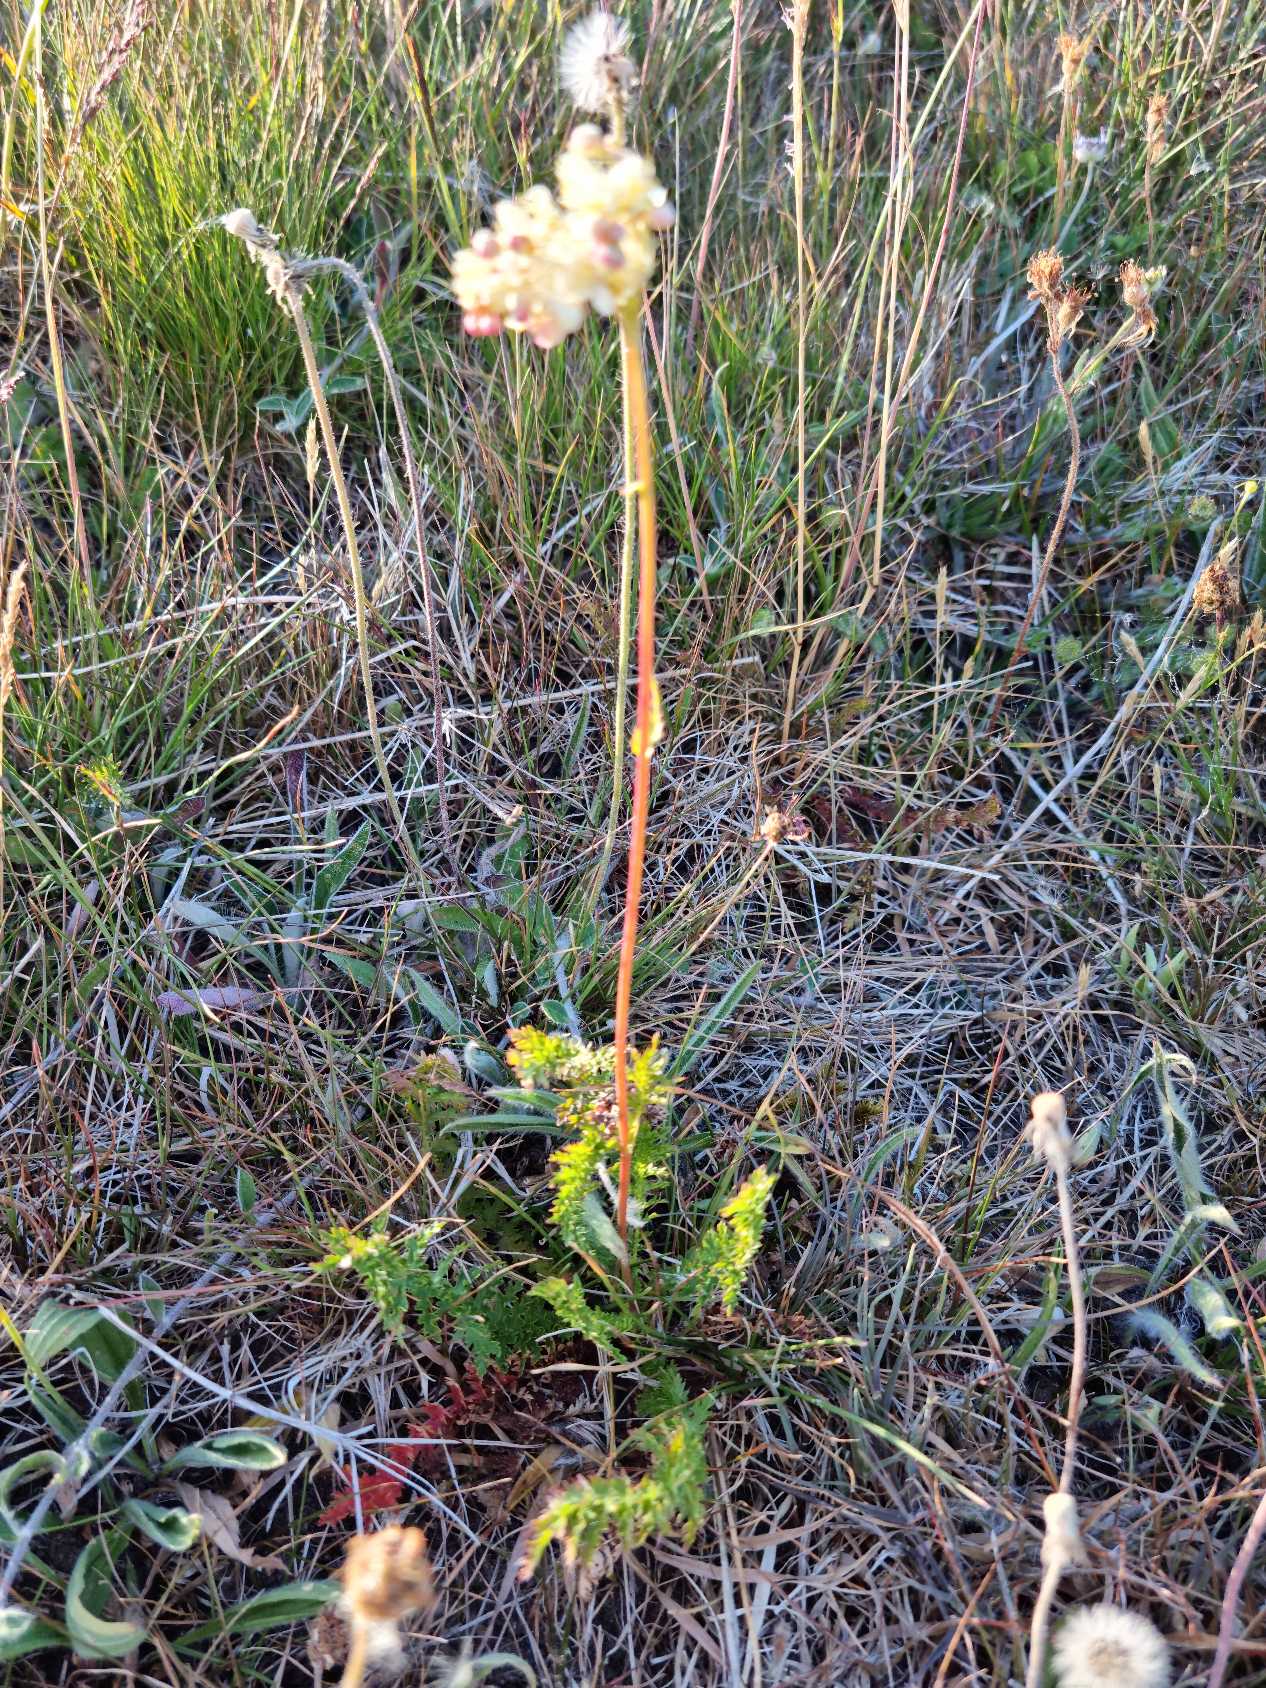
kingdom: Plantae
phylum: Tracheophyta
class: Magnoliopsida
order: Rosales
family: Rosaceae
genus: Filipendula
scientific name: Filipendula vulgaris
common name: Knoldet mjødurt
